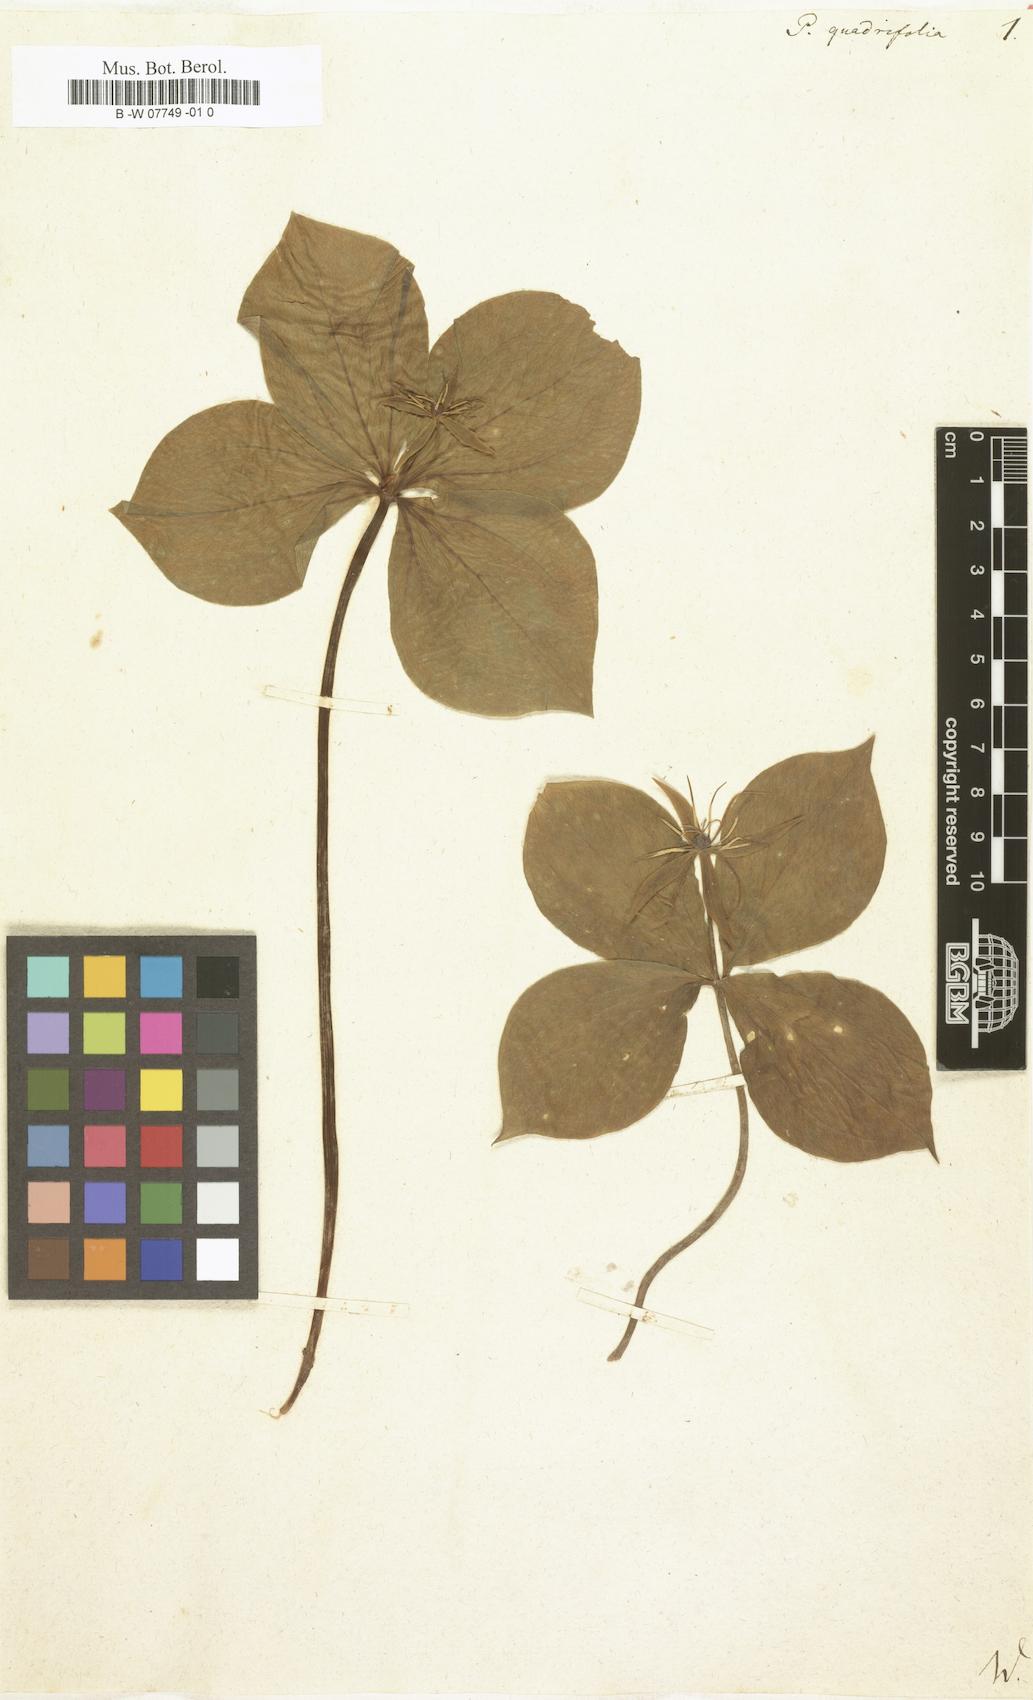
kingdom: Plantae
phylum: Tracheophyta
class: Liliopsida
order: Liliales
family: Melanthiaceae
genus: Paris
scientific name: Paris quadrifolia
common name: Herb-paris
